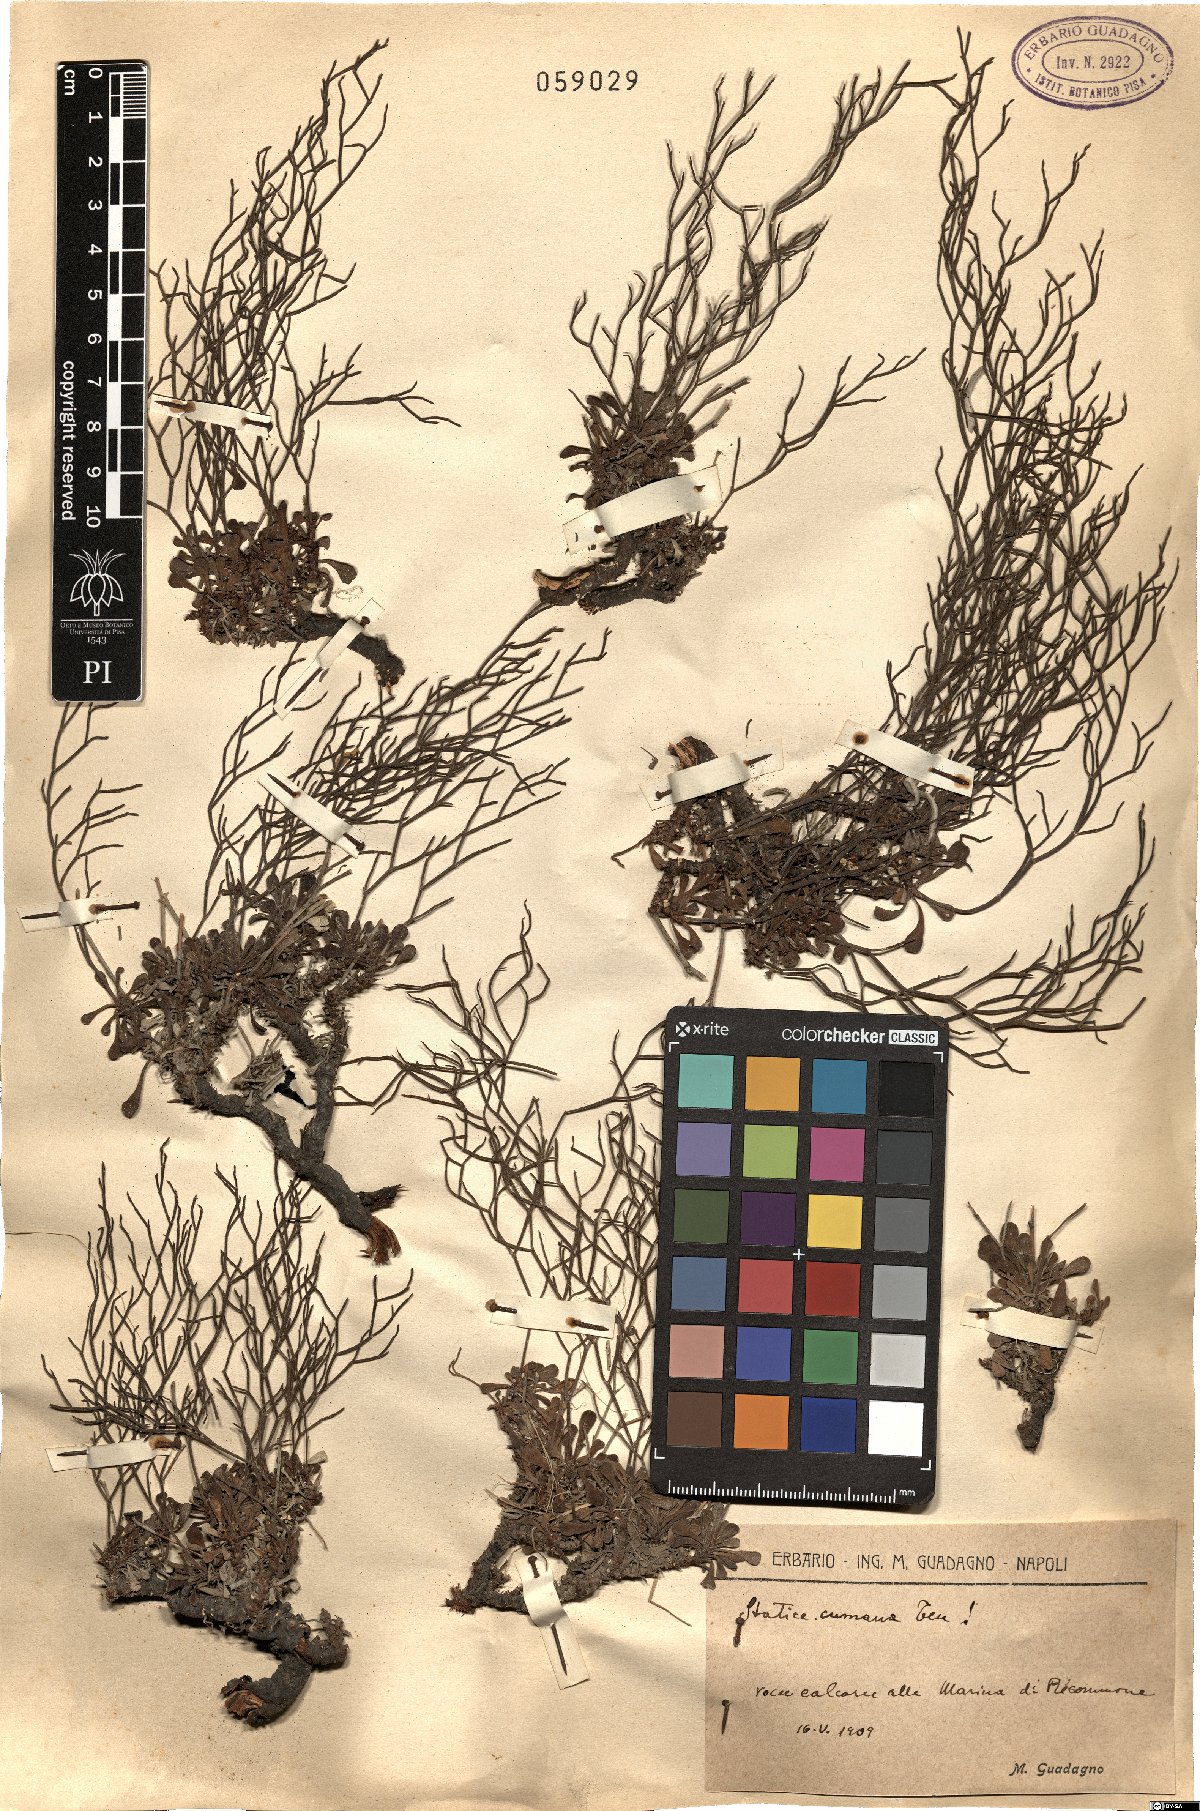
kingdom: Plantae
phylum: Tracheophyta
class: Magnoliopsida
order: Caryophyllales
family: Plumbaginaceae
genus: Limonium
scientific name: Limonium cumanum
